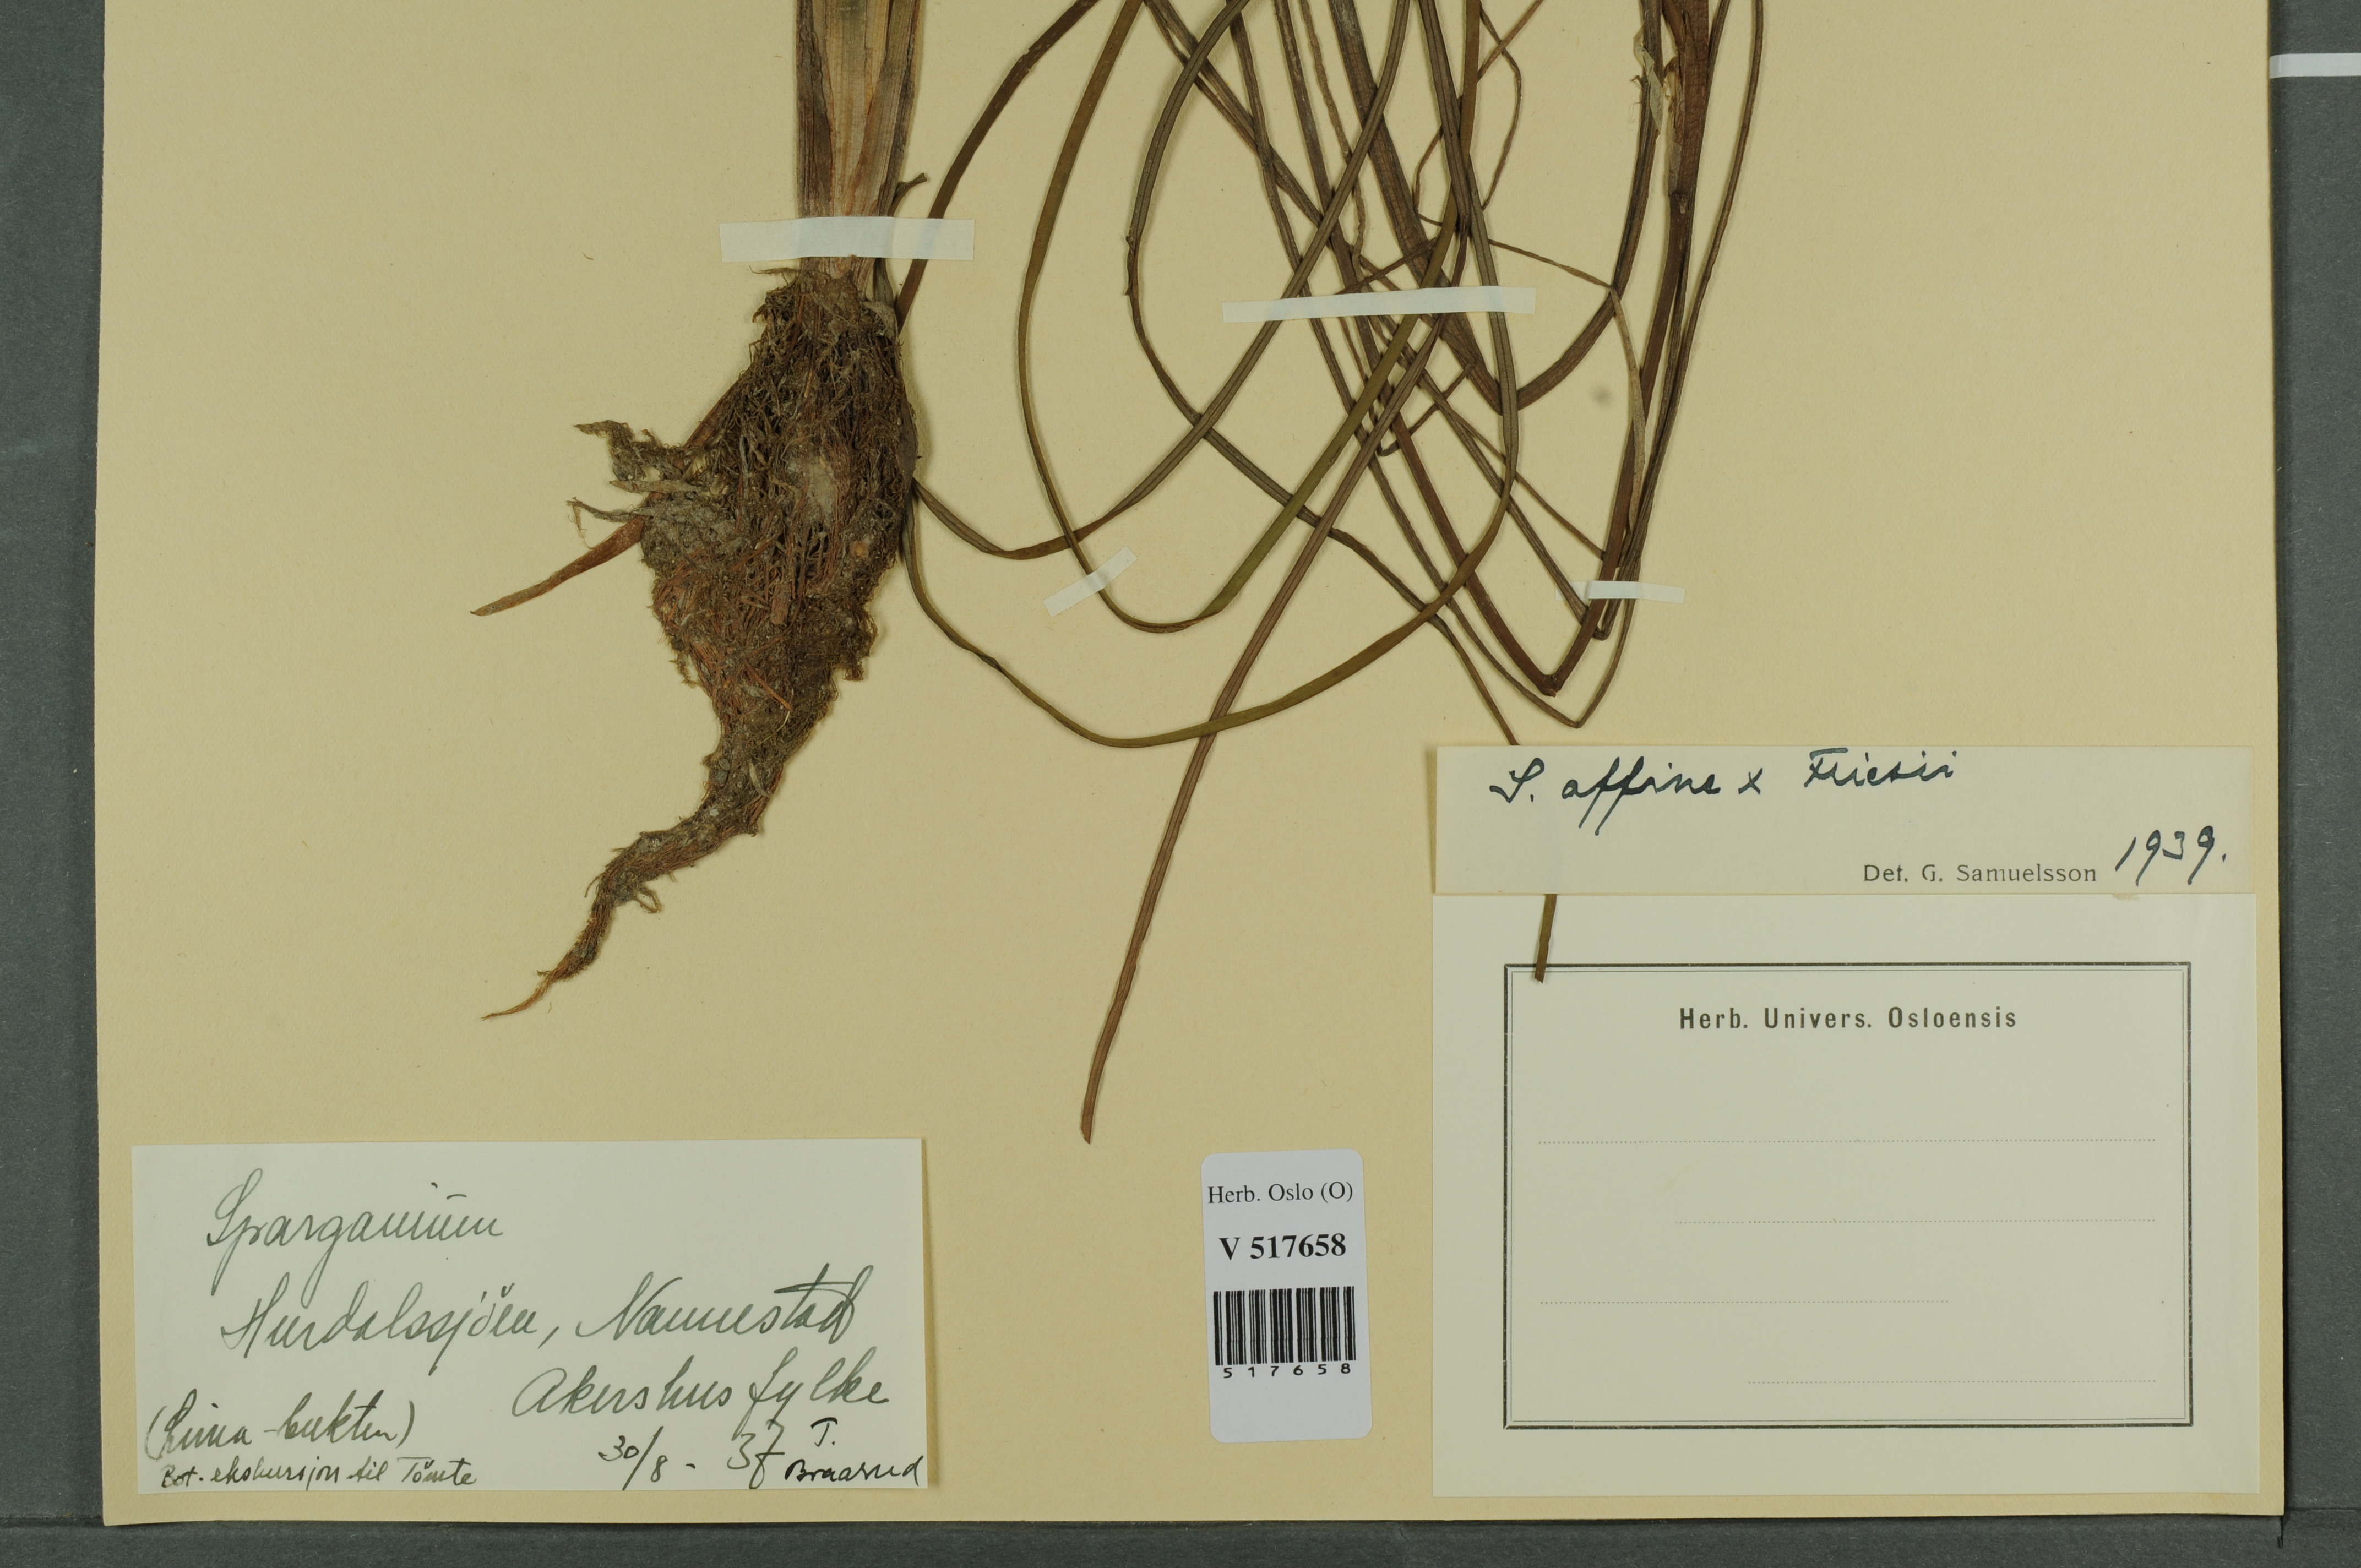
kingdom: Plantae
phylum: Tracheophyta
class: Liliopsida
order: Poales
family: Typhaceae
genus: Sparganium
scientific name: Sparganium
